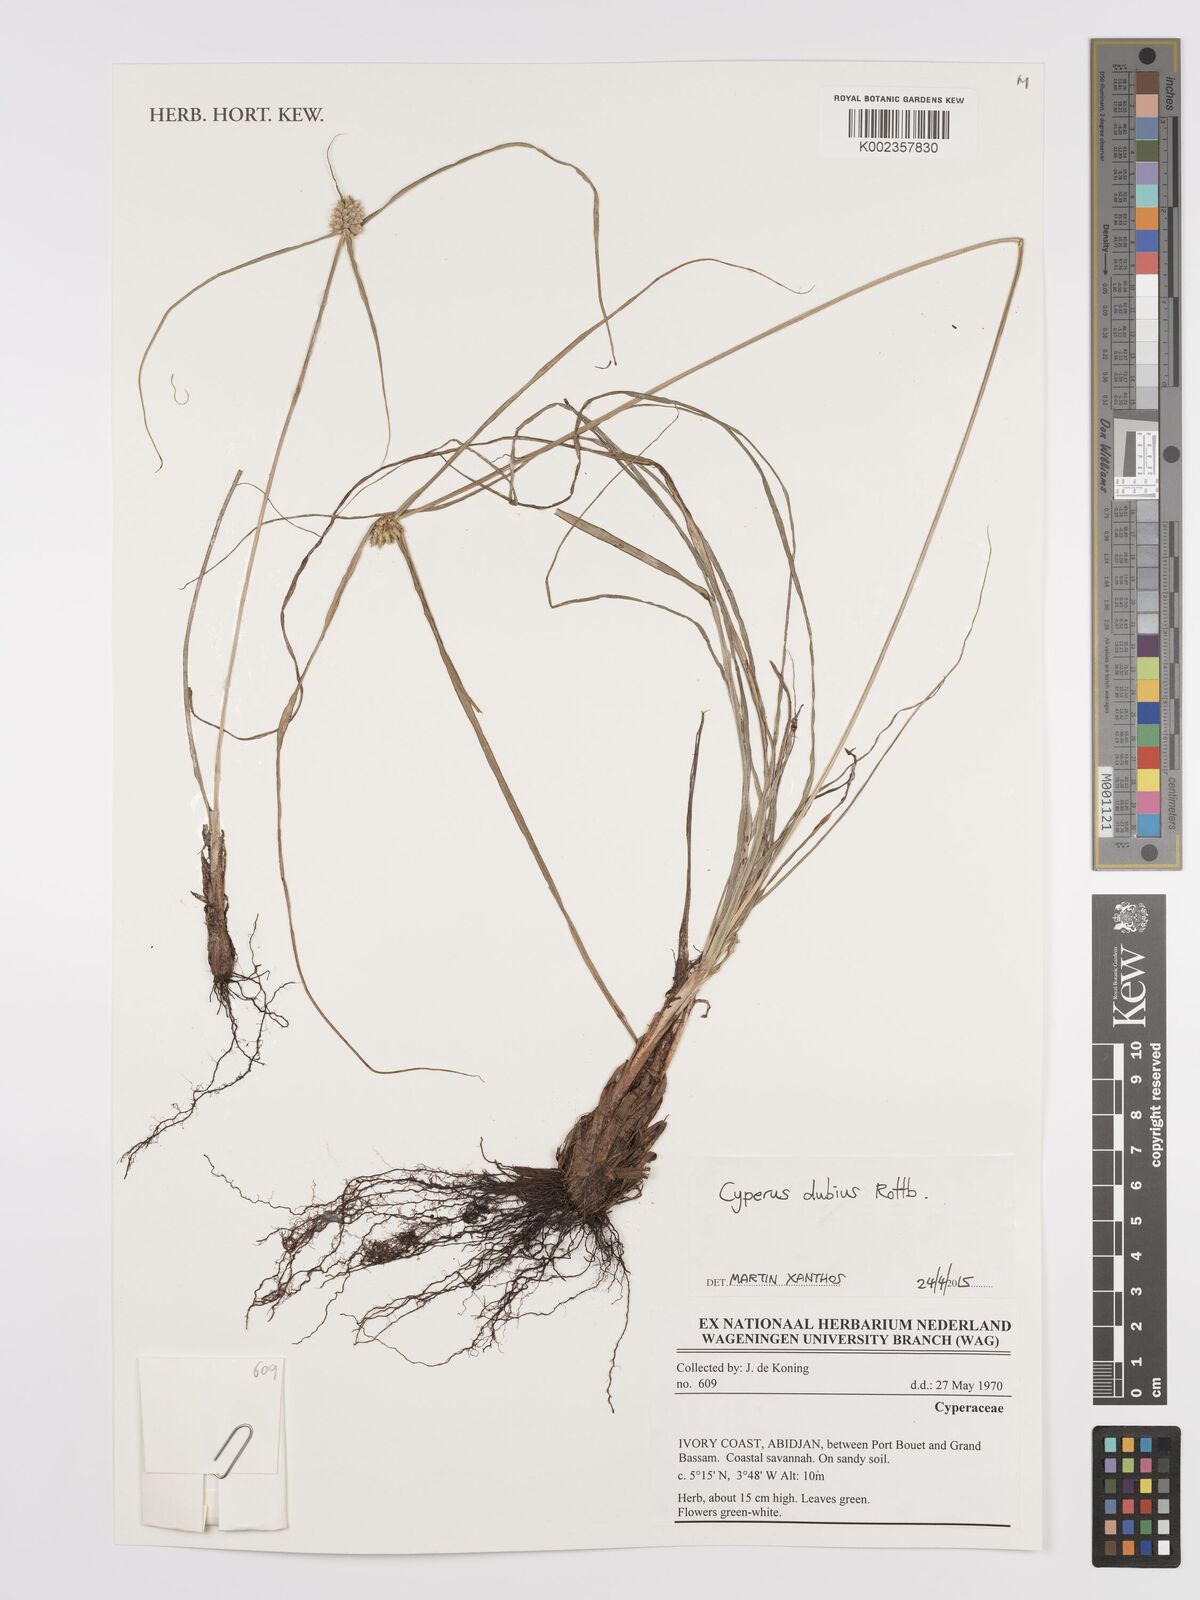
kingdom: Plantae
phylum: Tracheophyta
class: Liliopsida
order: Poales
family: Cyperaceae
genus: Cyperus
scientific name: Cyperus dubius
